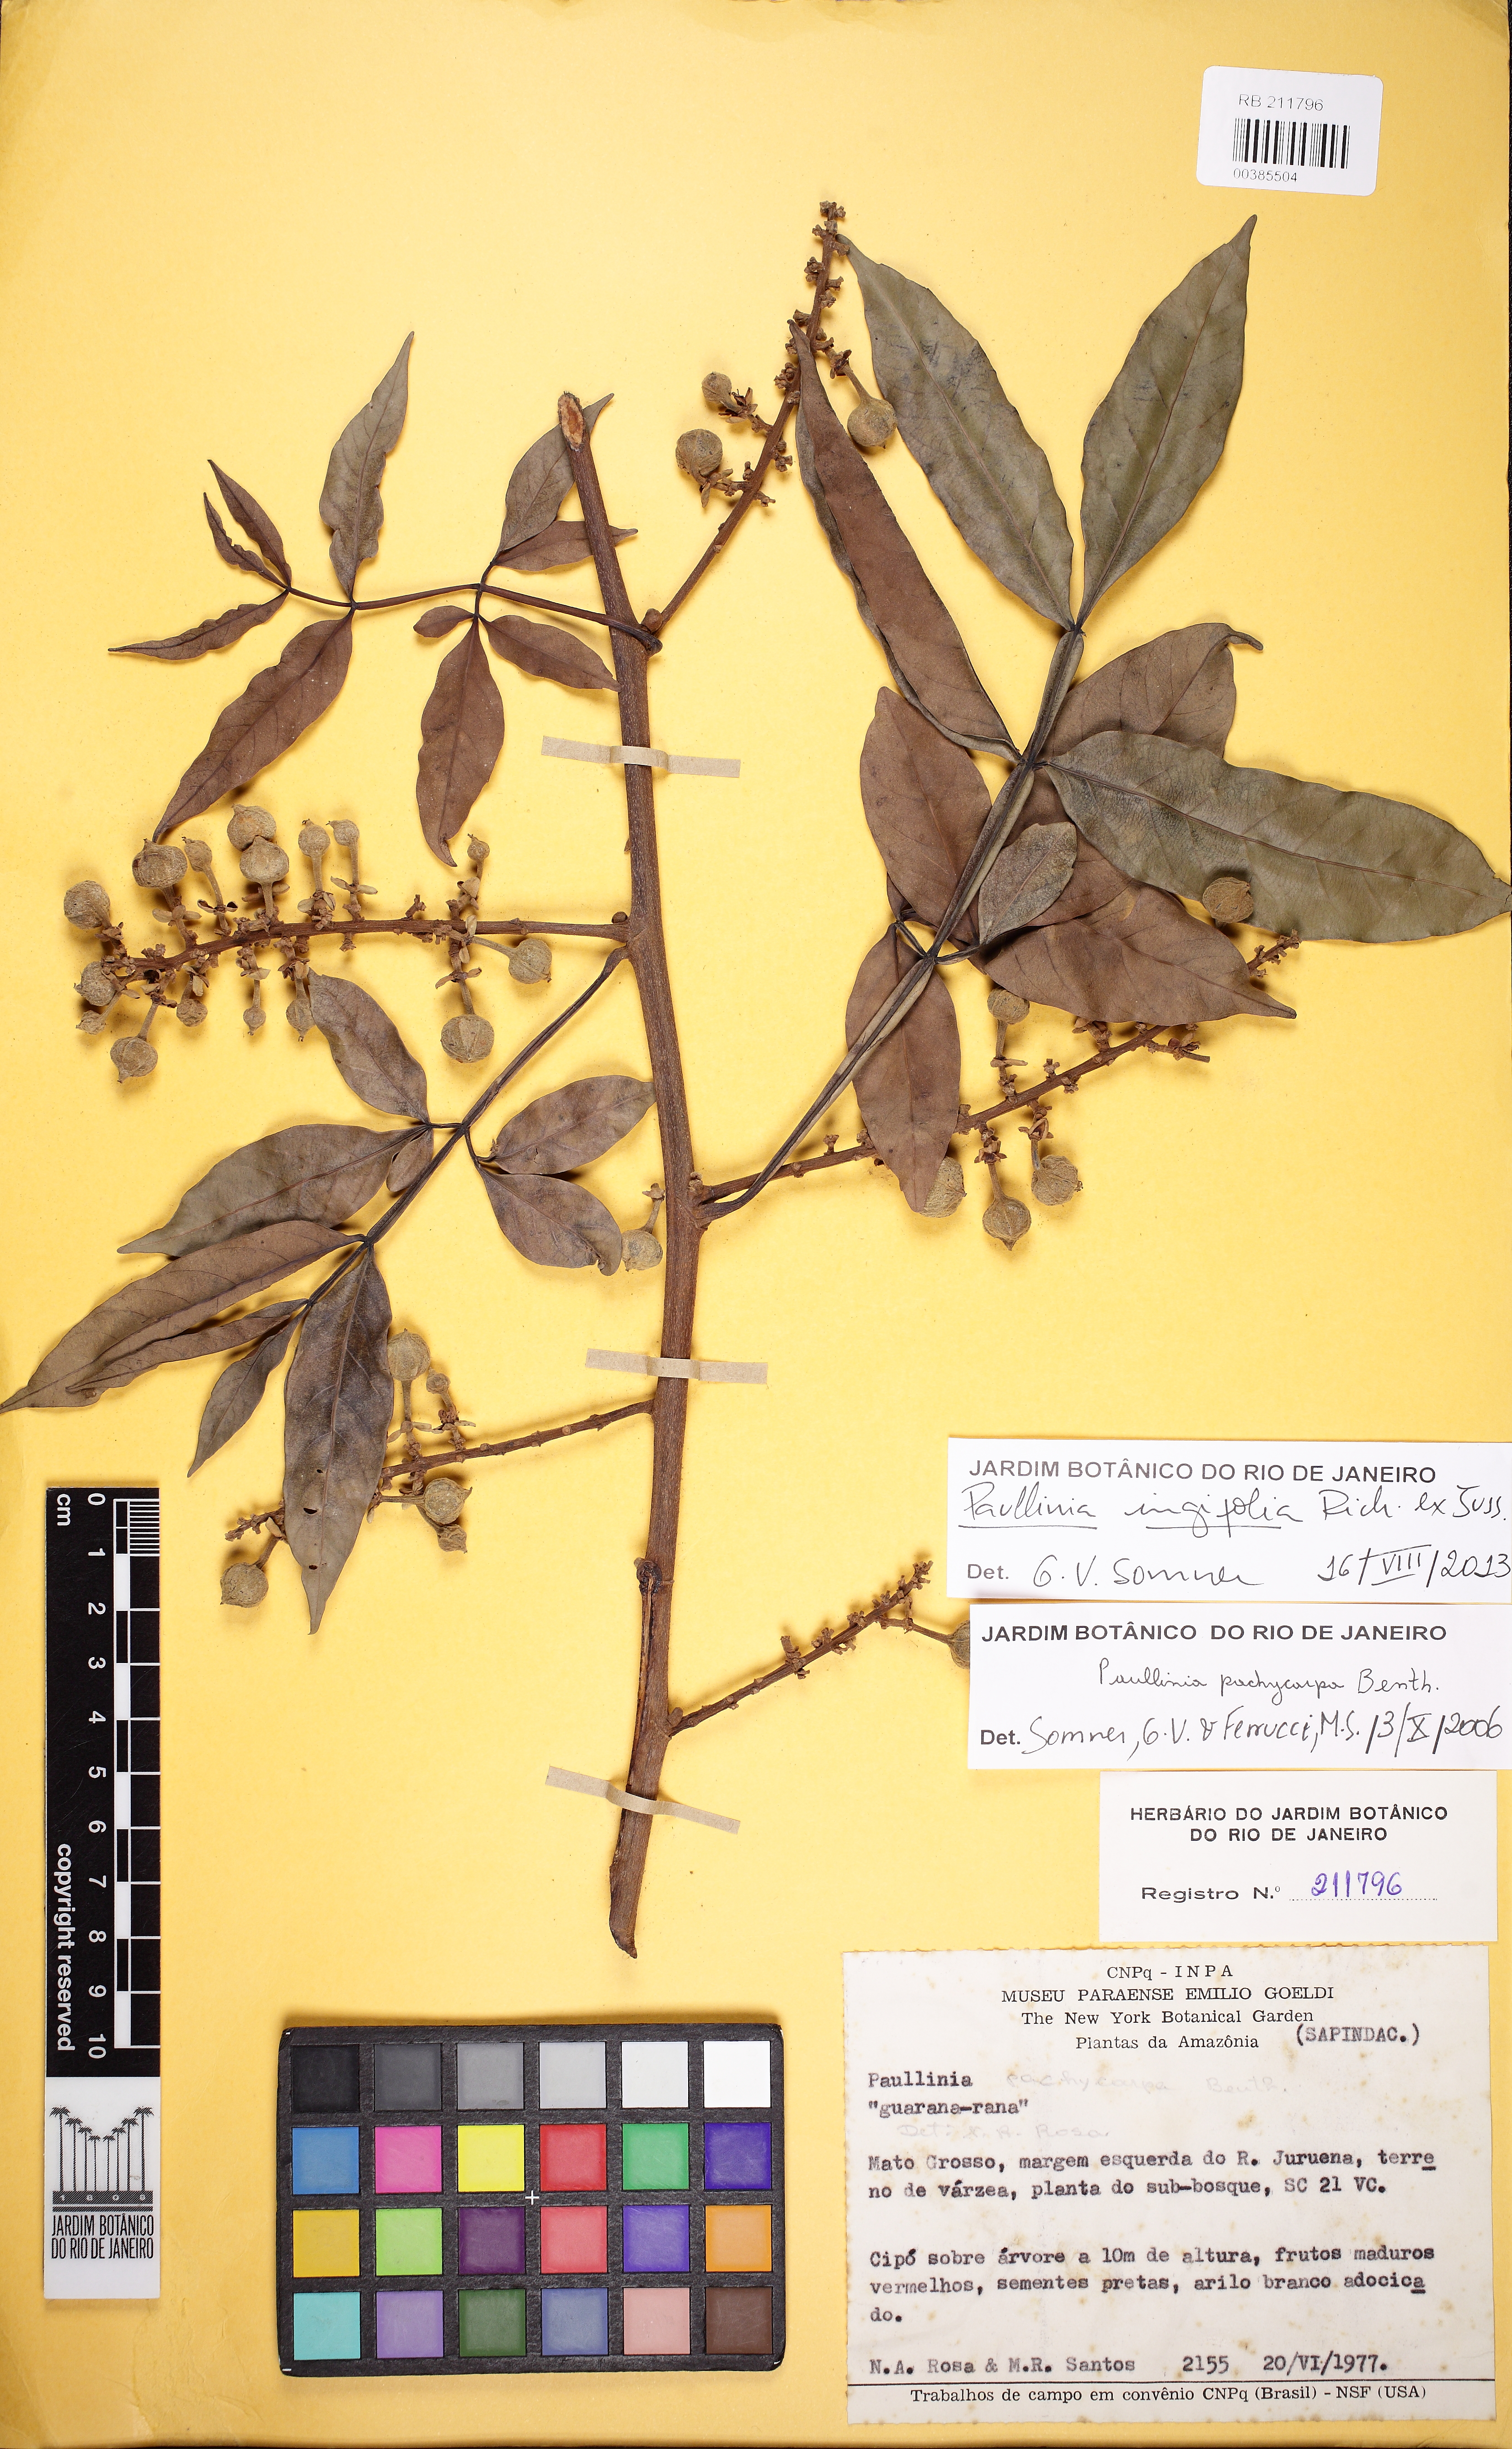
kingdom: Plantae
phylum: Tracheophyta
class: Magnoliopsida
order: Sapindales
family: Sapindaceae
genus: Paullinia
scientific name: Paullinia ingifolia
